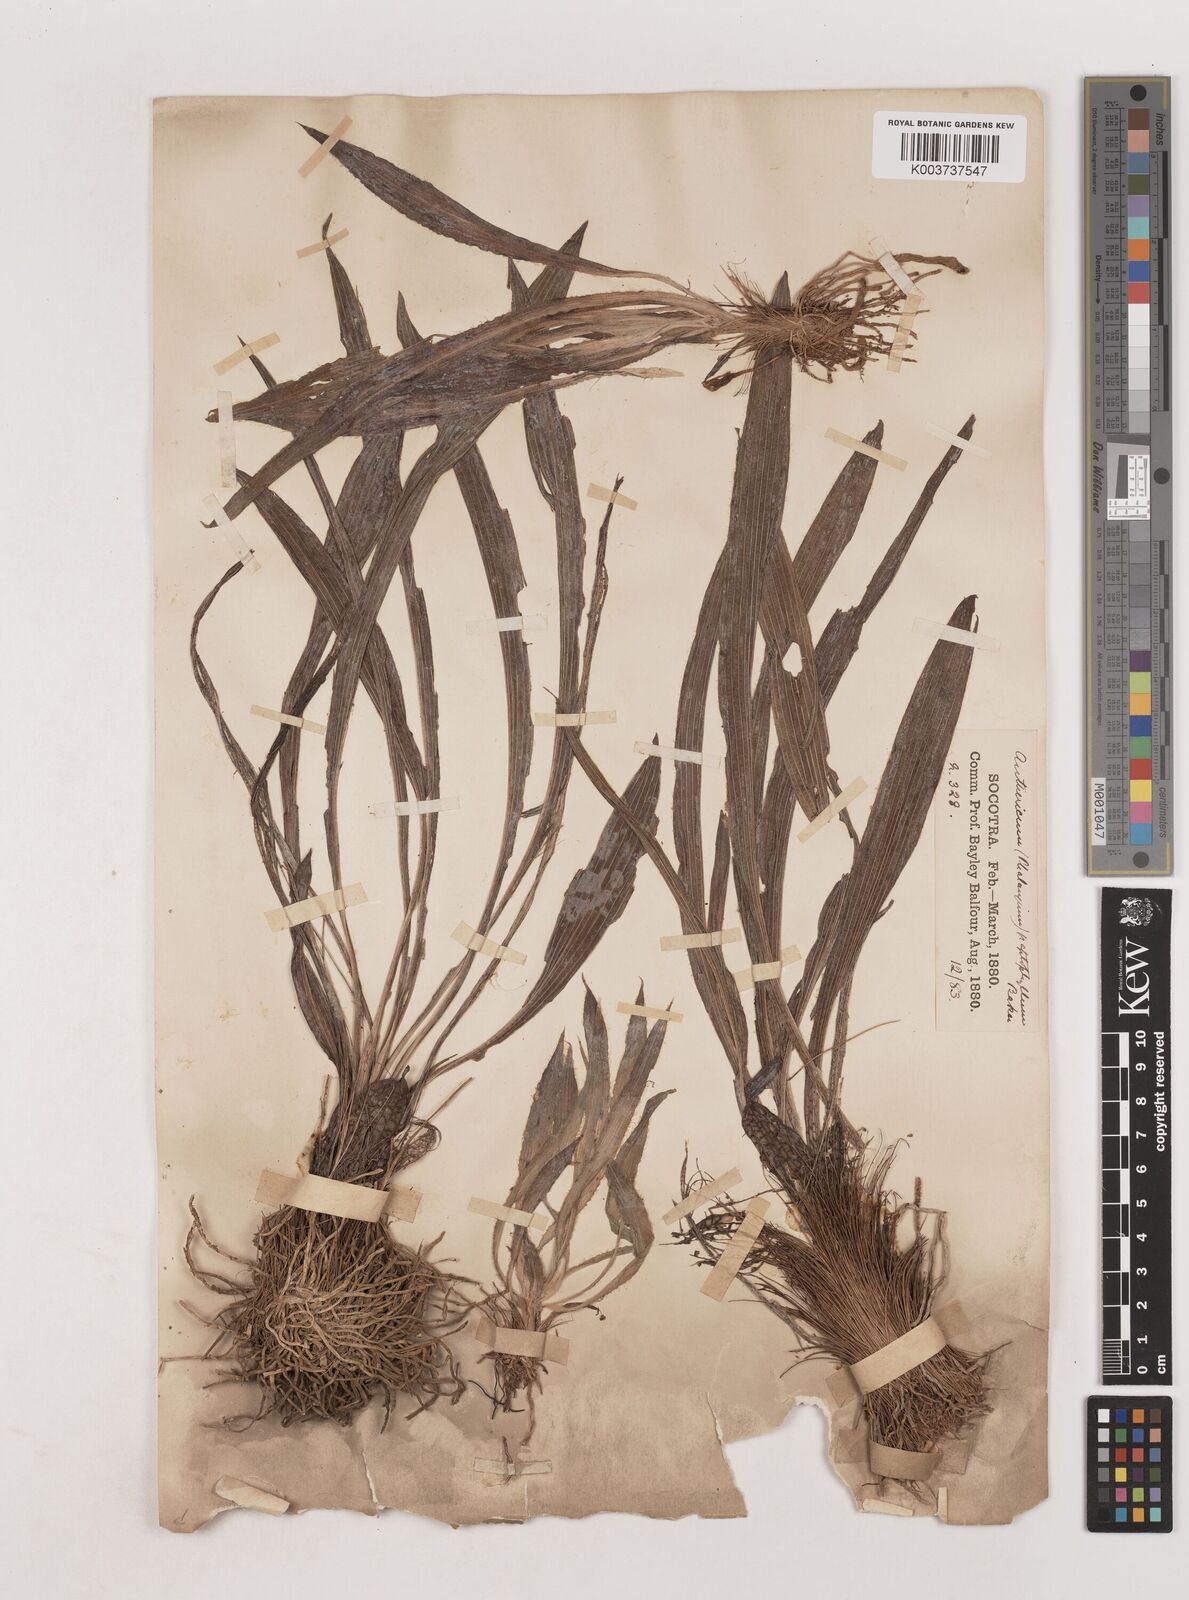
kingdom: Plantae
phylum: Tracheophyta
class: Liliopsida
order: Asparagales
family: Asparagaceae
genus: Chlorophytum
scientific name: Chlorophytum graptophyllum
